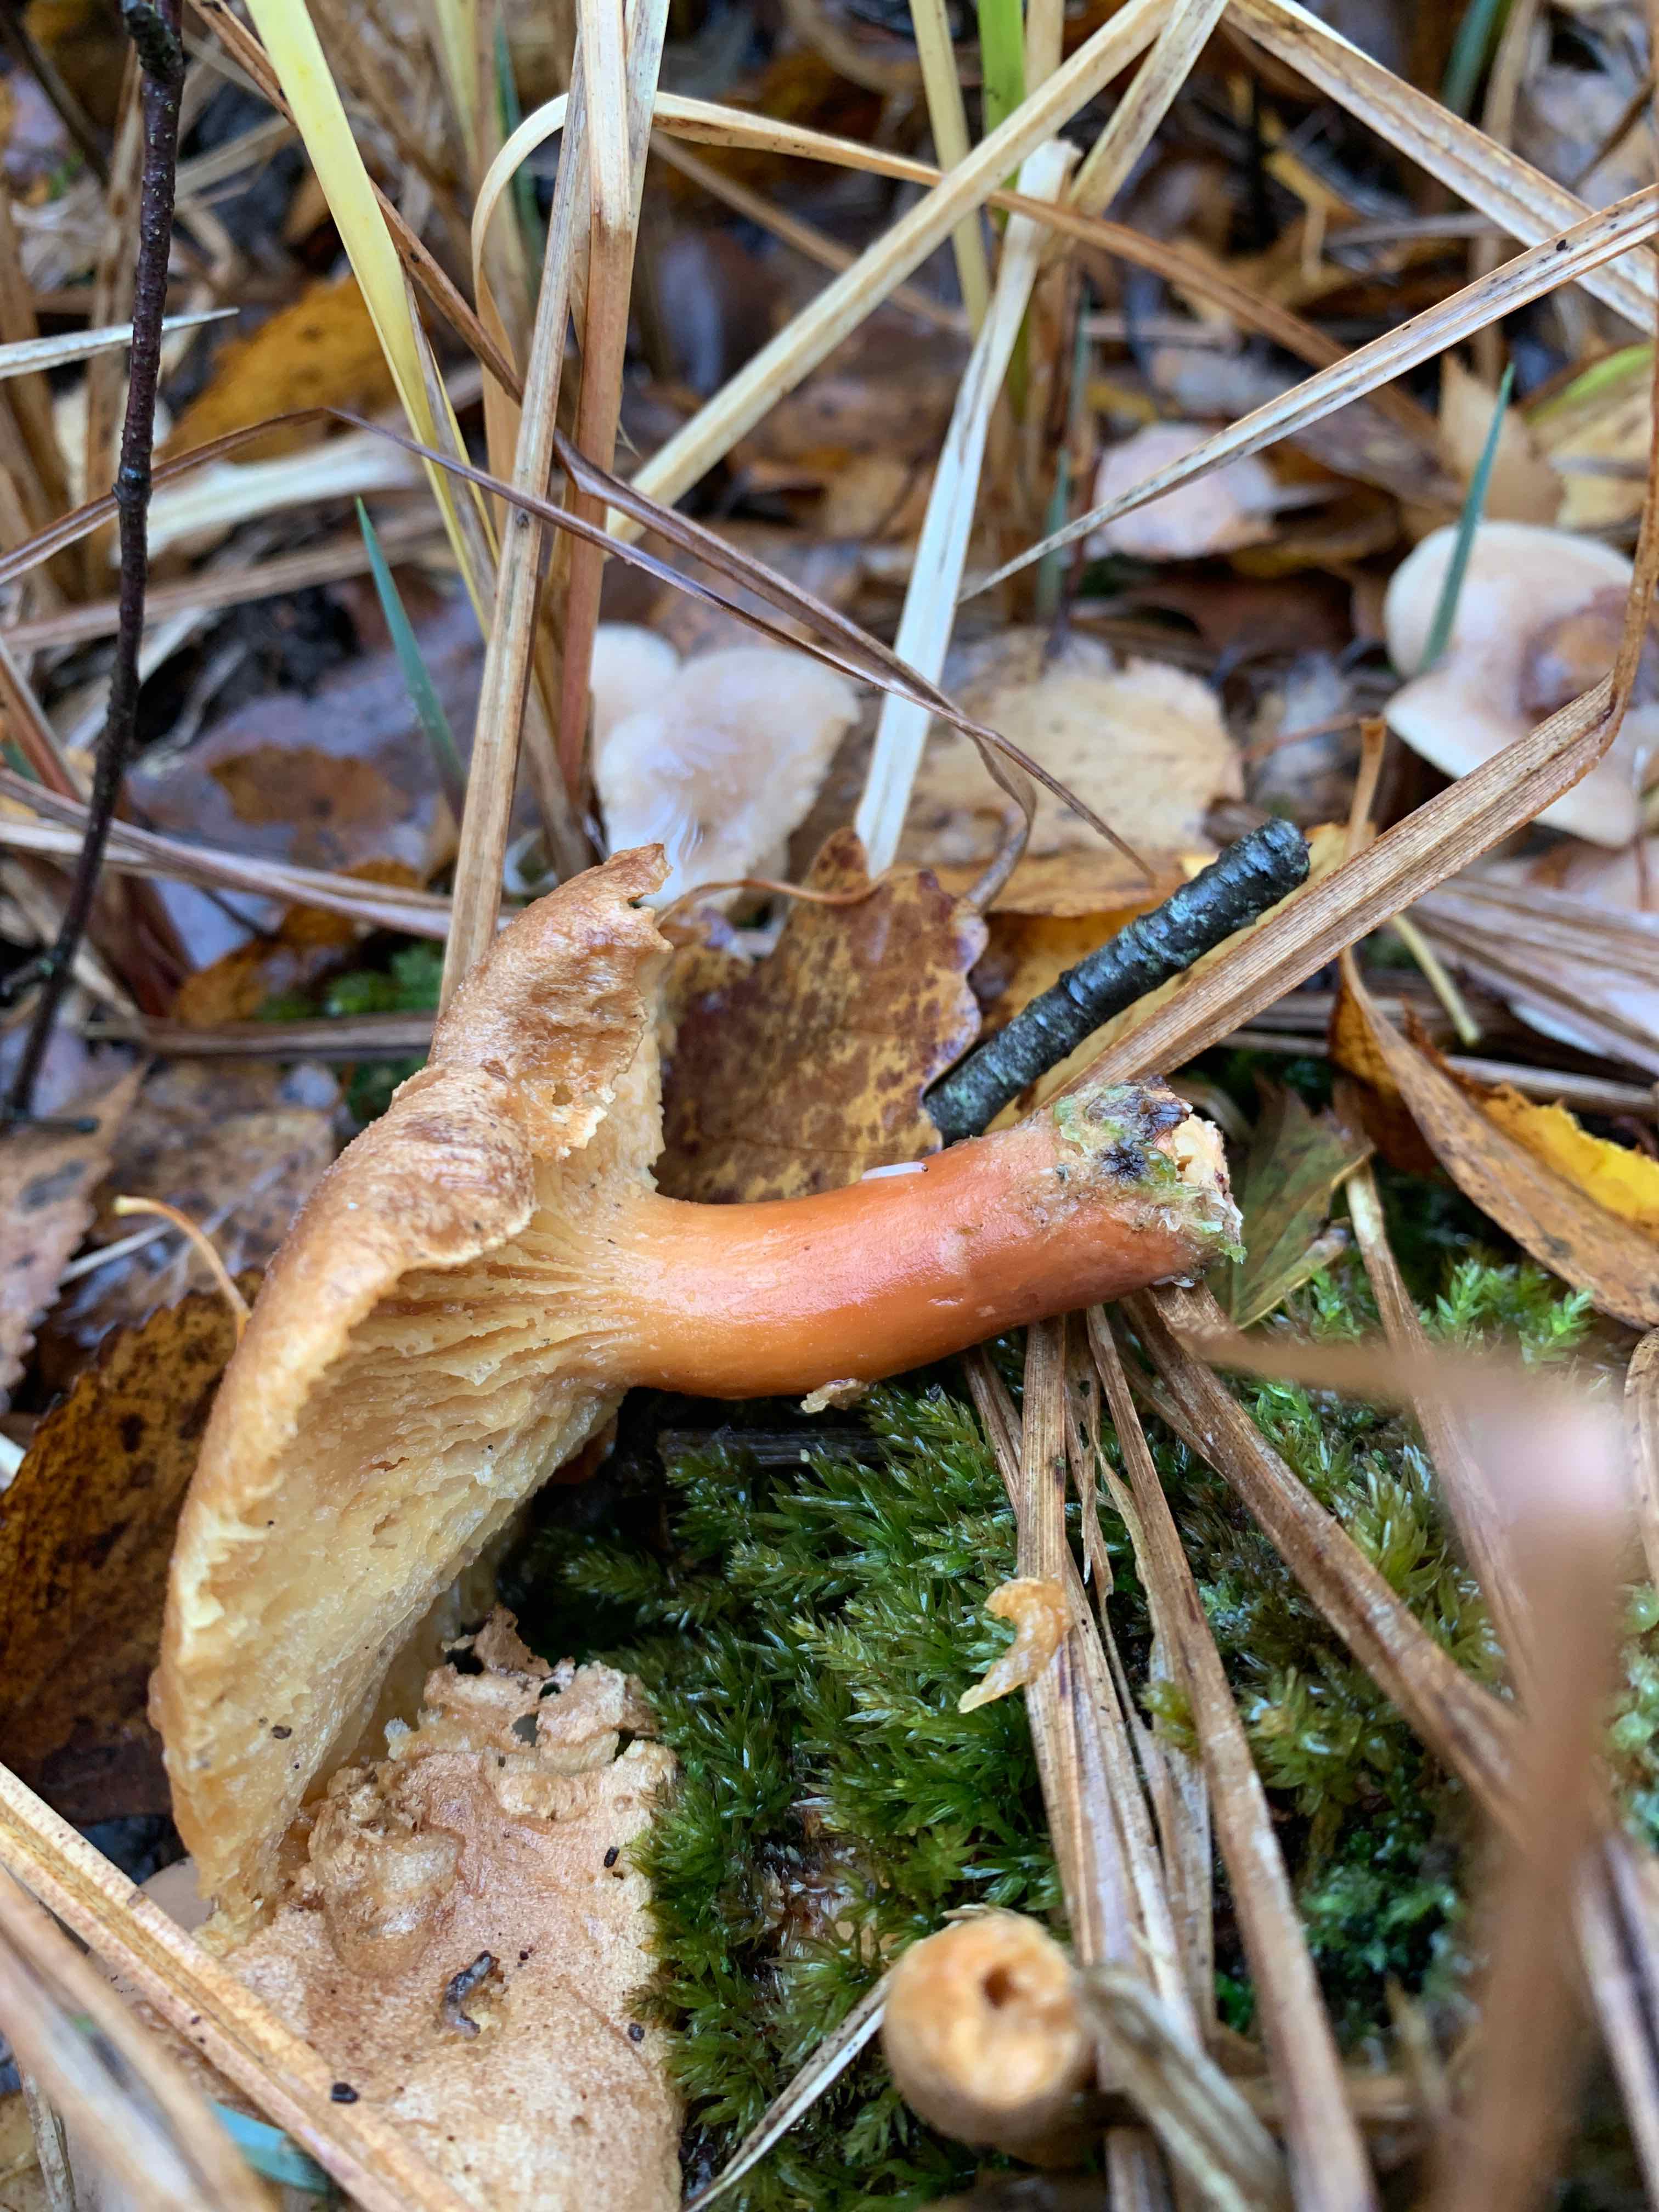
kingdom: Fungi
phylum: Basidiomycota
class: Agaricomycetes
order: Russulales
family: Russulaceae
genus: Lactarius
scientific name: Lactarius
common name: mælkehat
